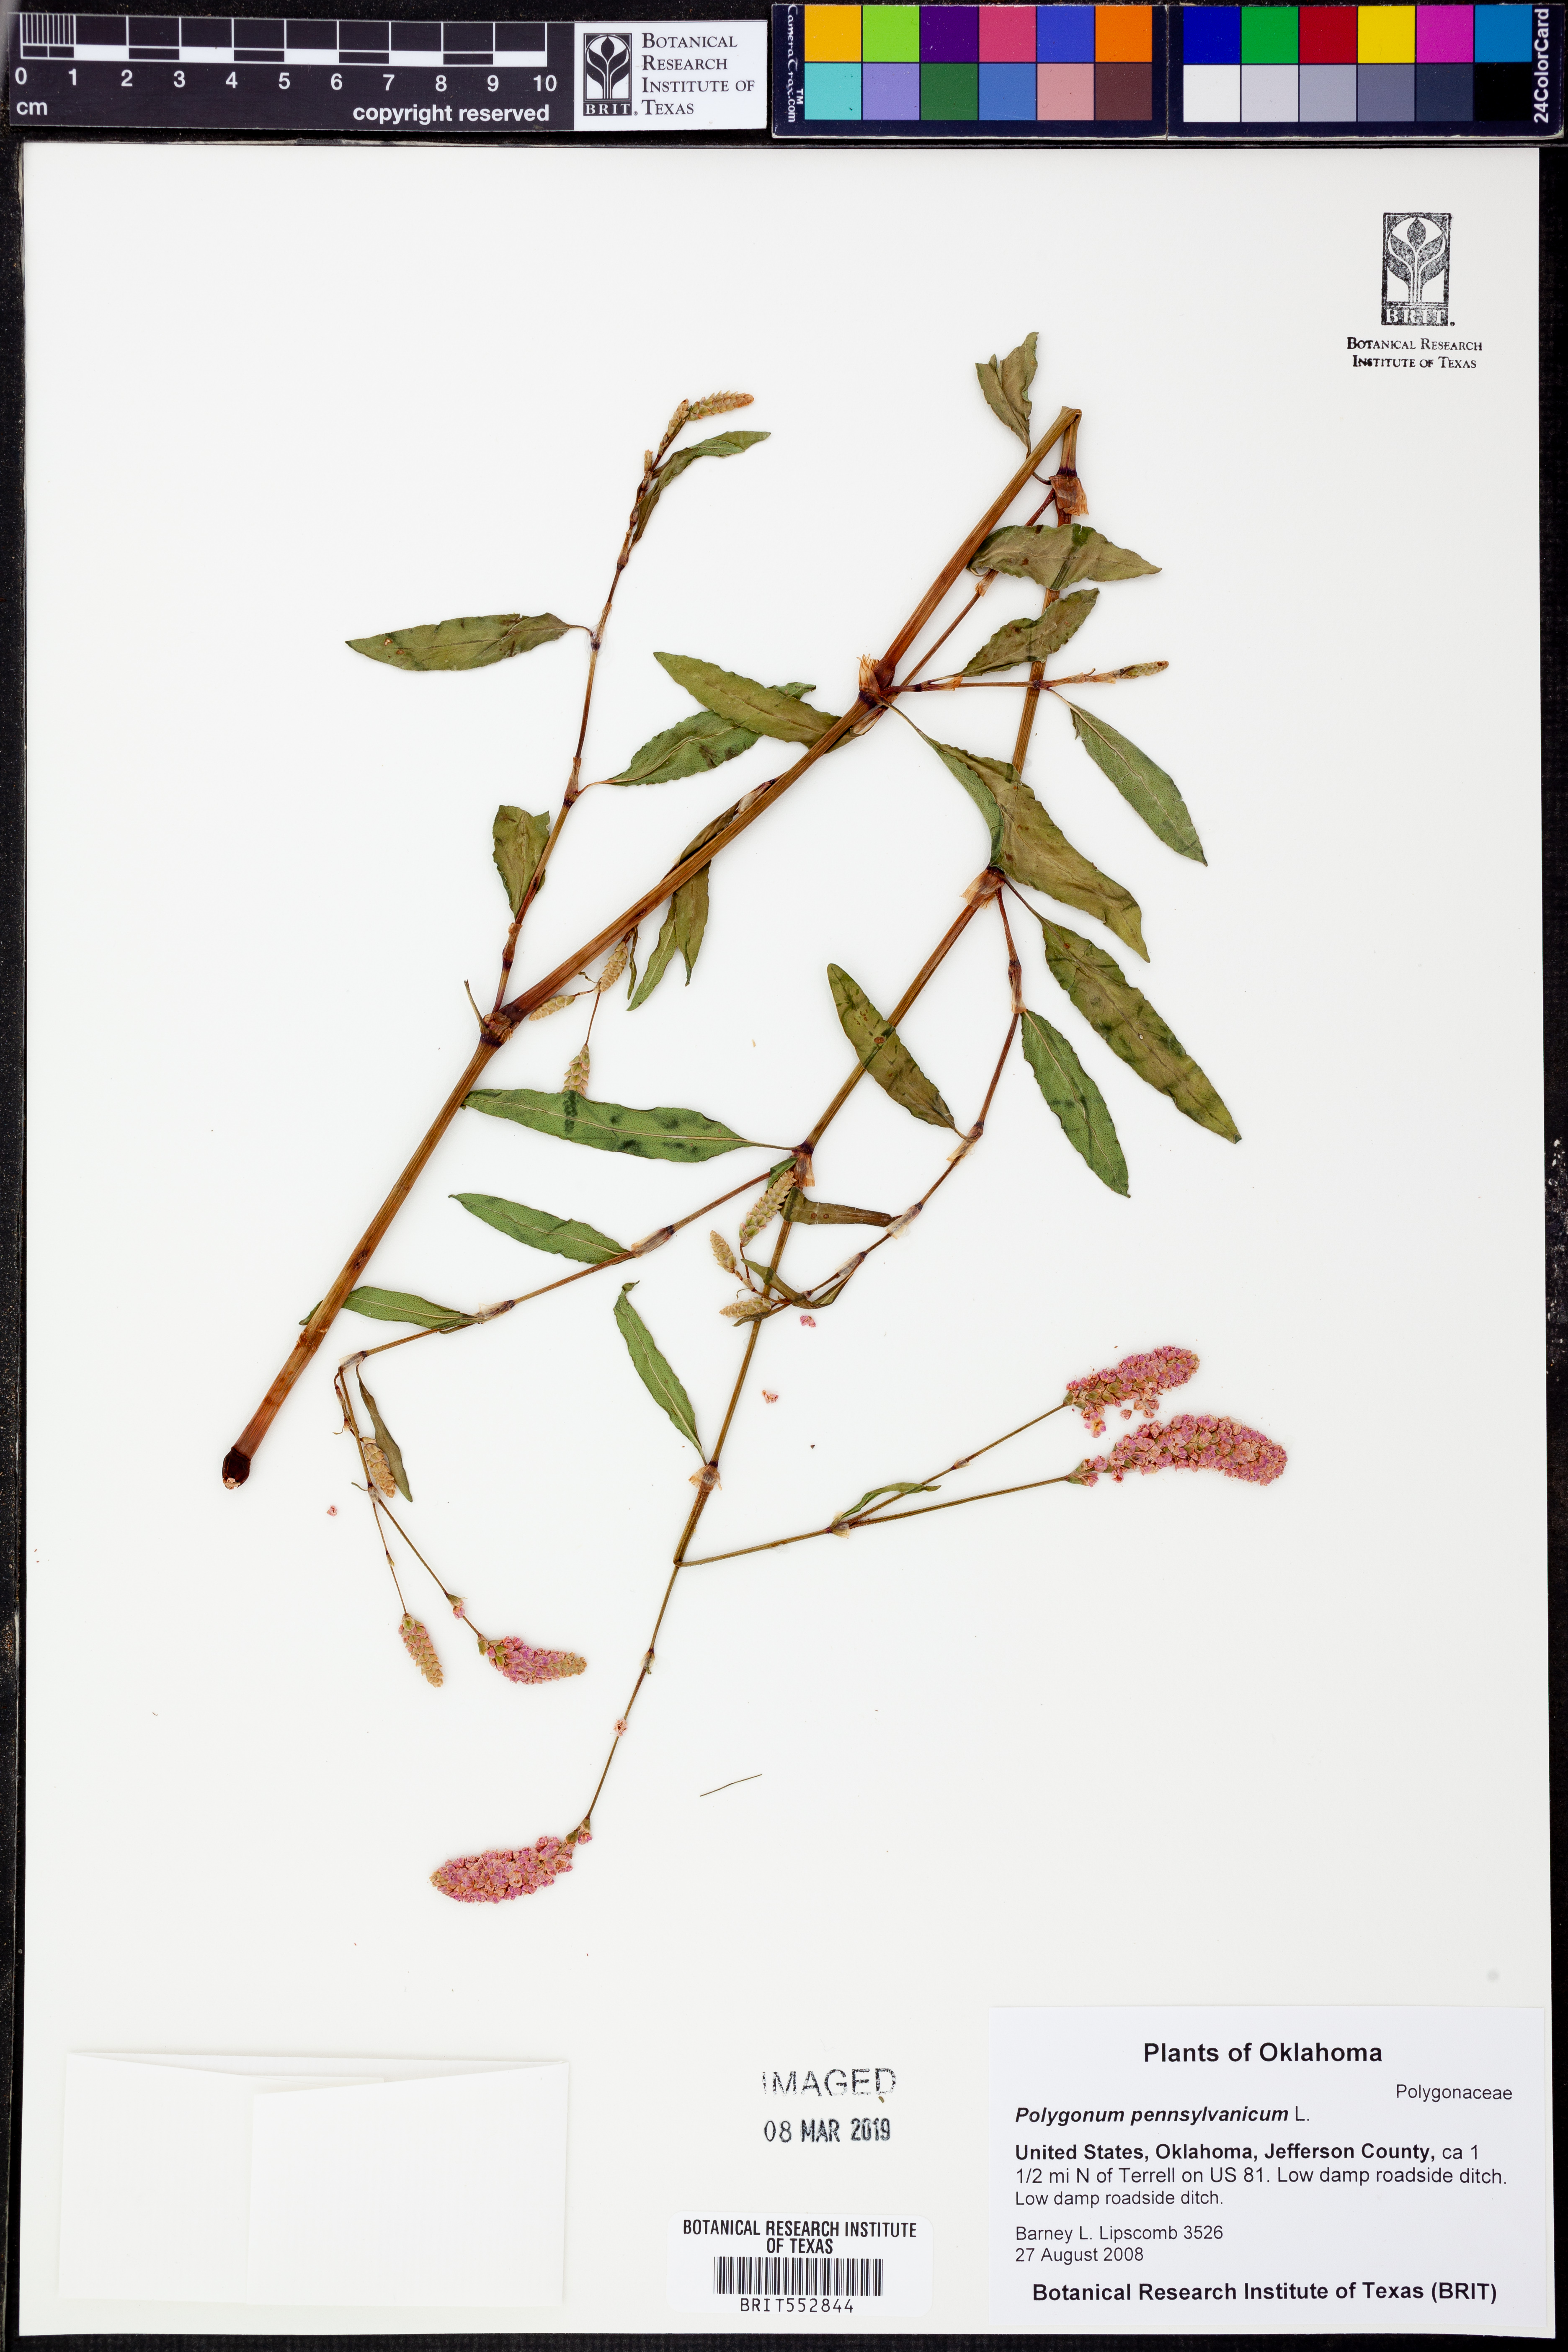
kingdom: Plantae
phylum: Tracheophyta
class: Magnoliopsida
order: Caryophyllales
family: Polygonaceae
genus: Persicaria
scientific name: Persicaria pensylvanica
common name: Pinkweed
